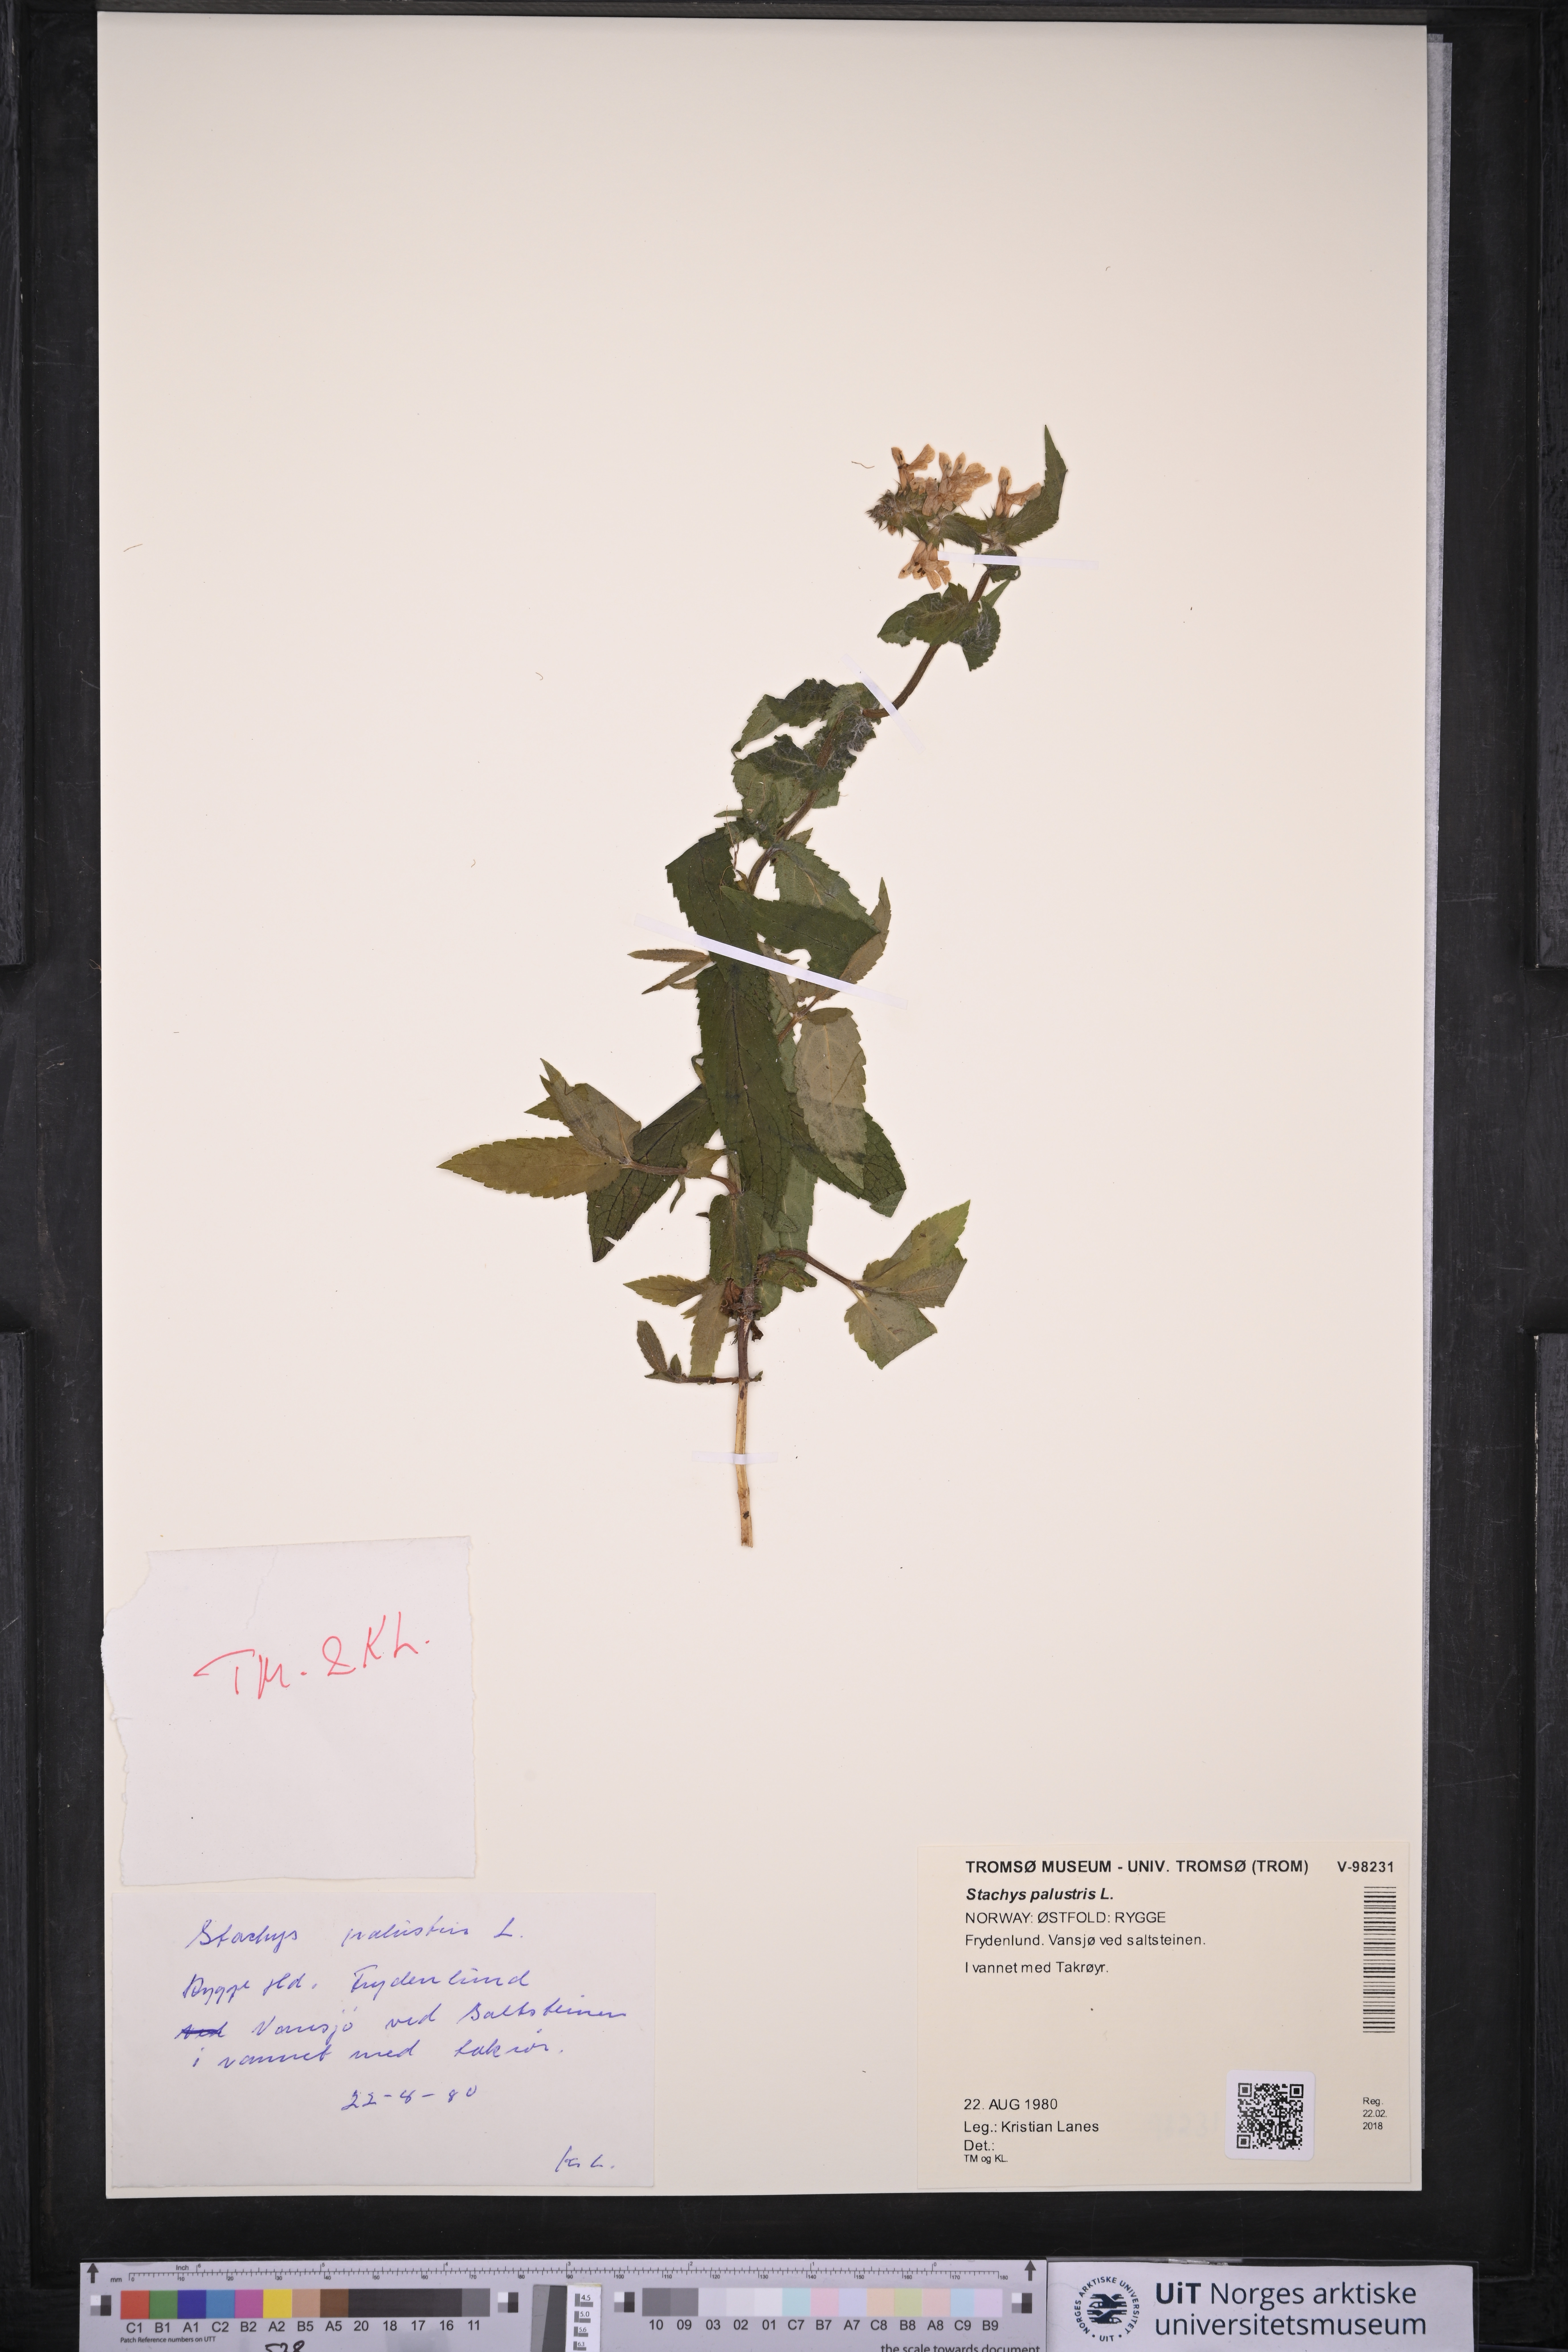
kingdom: Plantae
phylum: Tracheophyta
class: Magnoliopsida
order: Lamiales
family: Lamiaceae
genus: Stachys
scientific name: Stachys palustris
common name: Marsh woundwort
